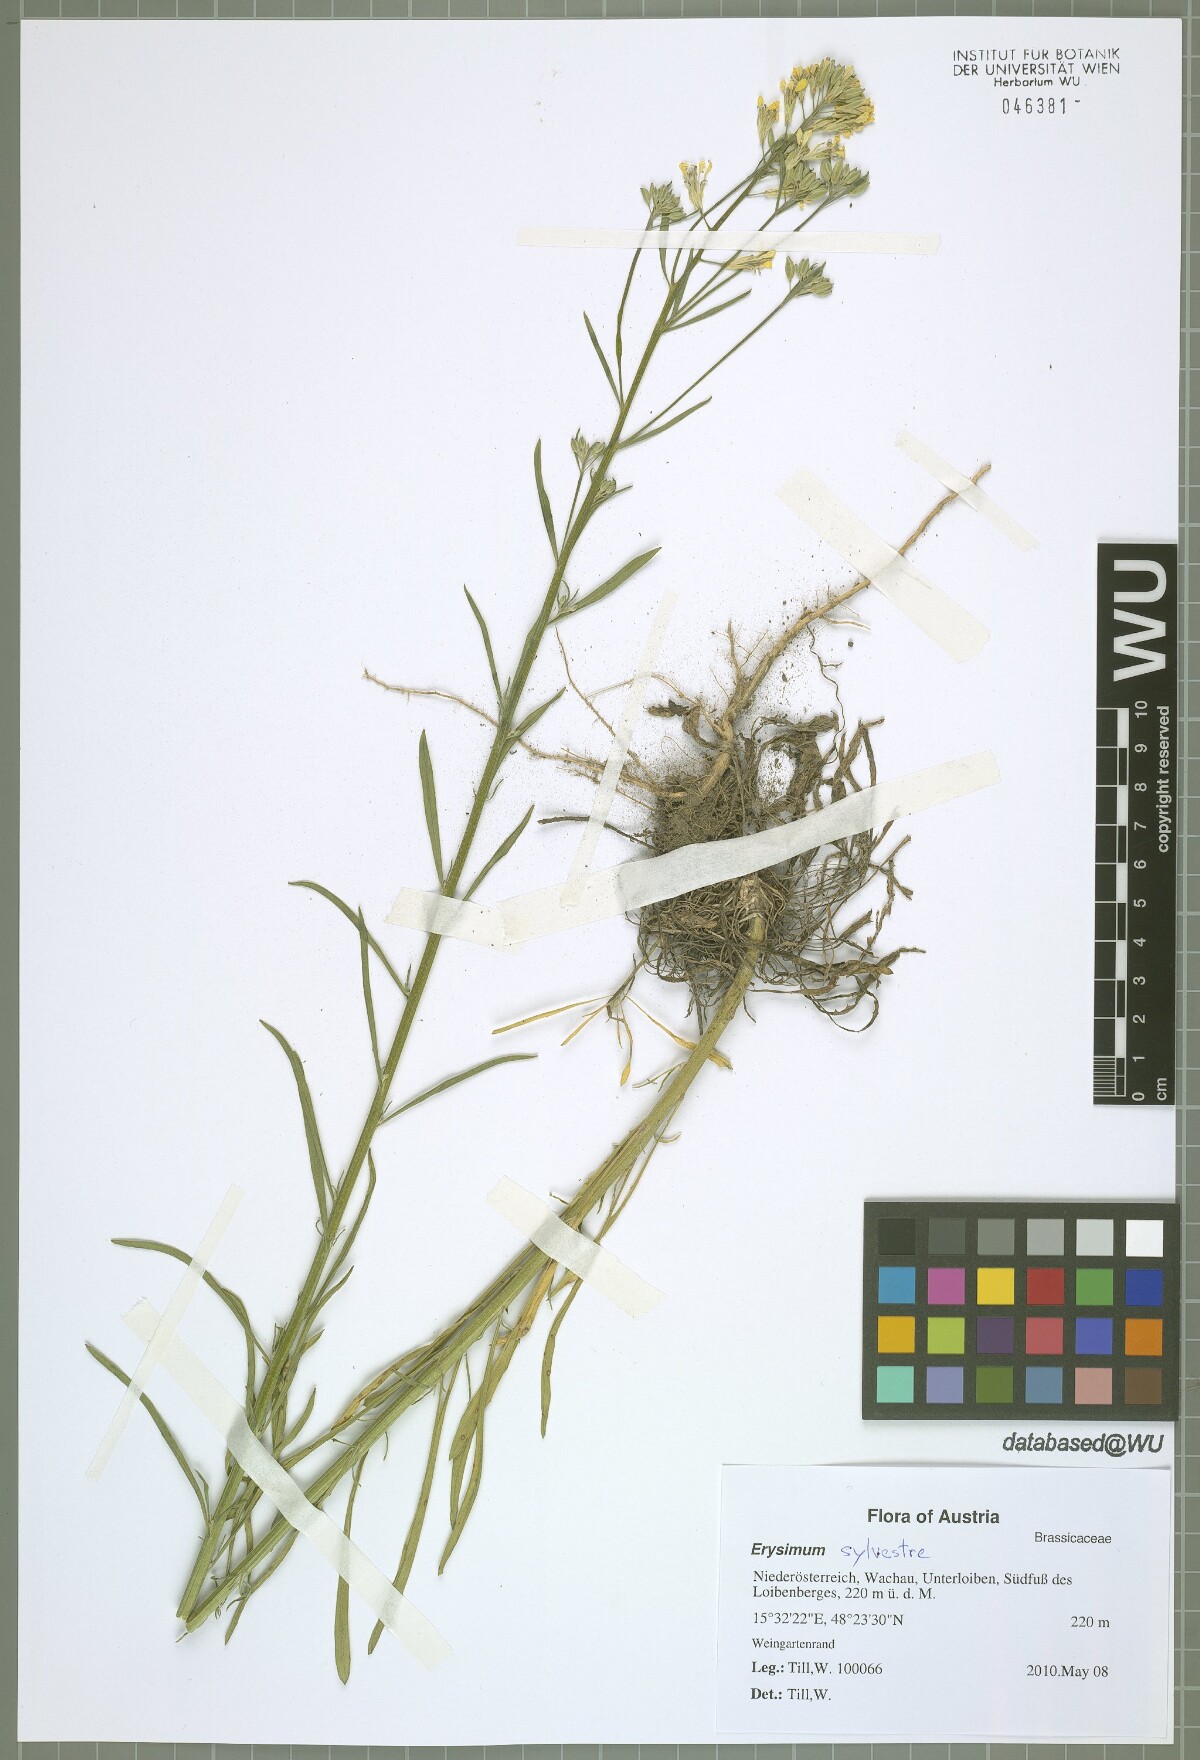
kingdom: Plantae
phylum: Tracheophyta
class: Magnoliopsida
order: Brassicales
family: Brassicaceae
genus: Erysimum
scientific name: Erysimum sylvestre
